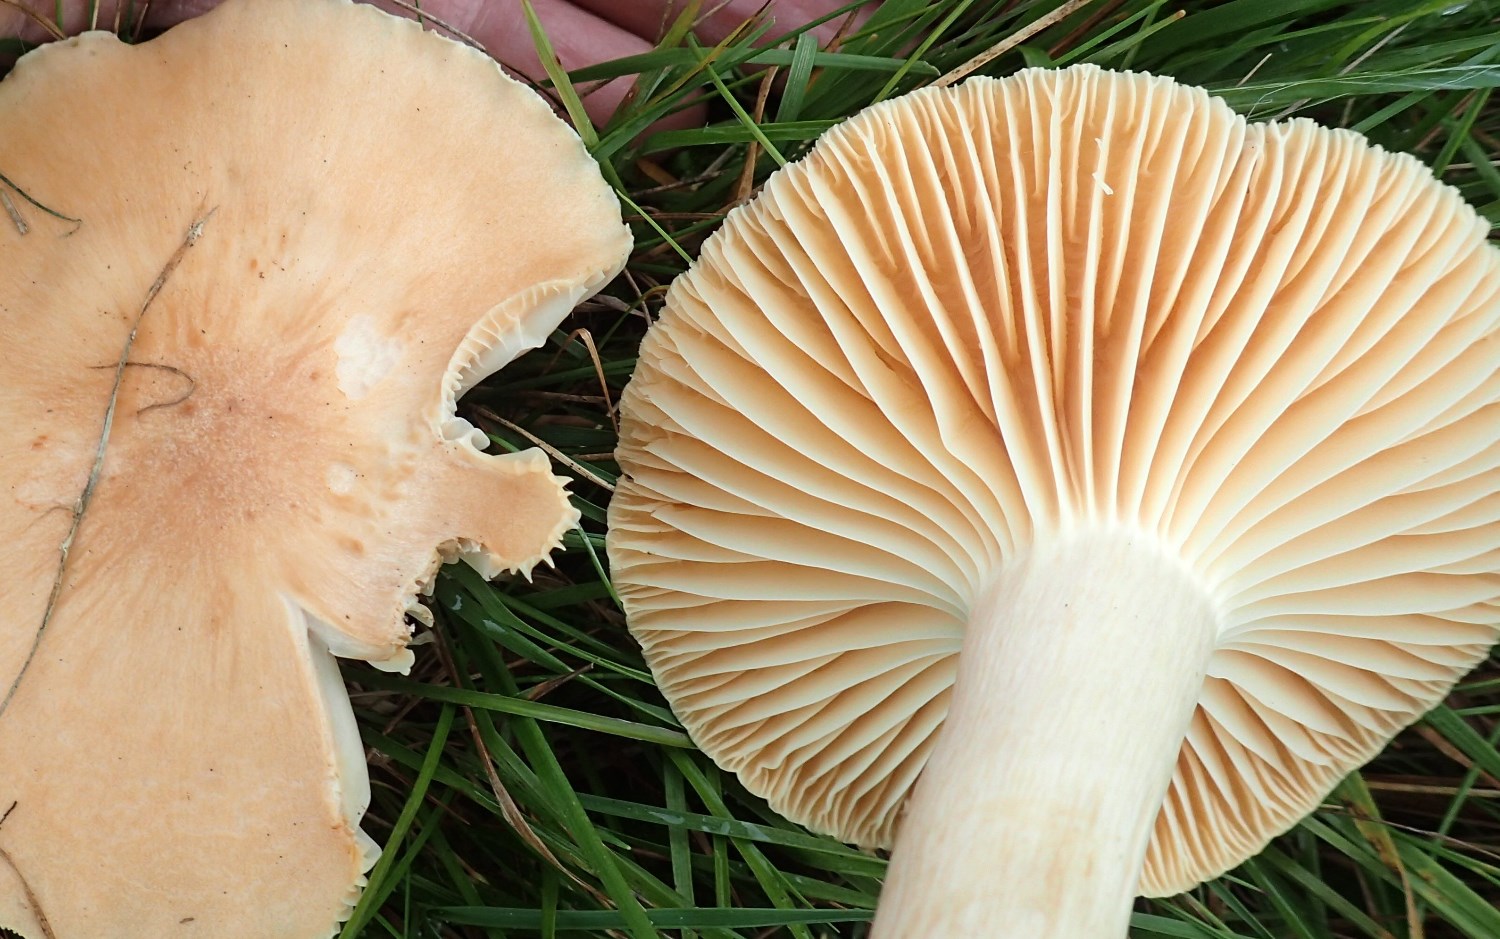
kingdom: Fungi
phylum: Basidiomycota
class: Agaricomycetes
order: Agaricales
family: Hygrophoraceae
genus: Cuphophyllus
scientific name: Cuphophyllus pratensis
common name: eng-vokshat
